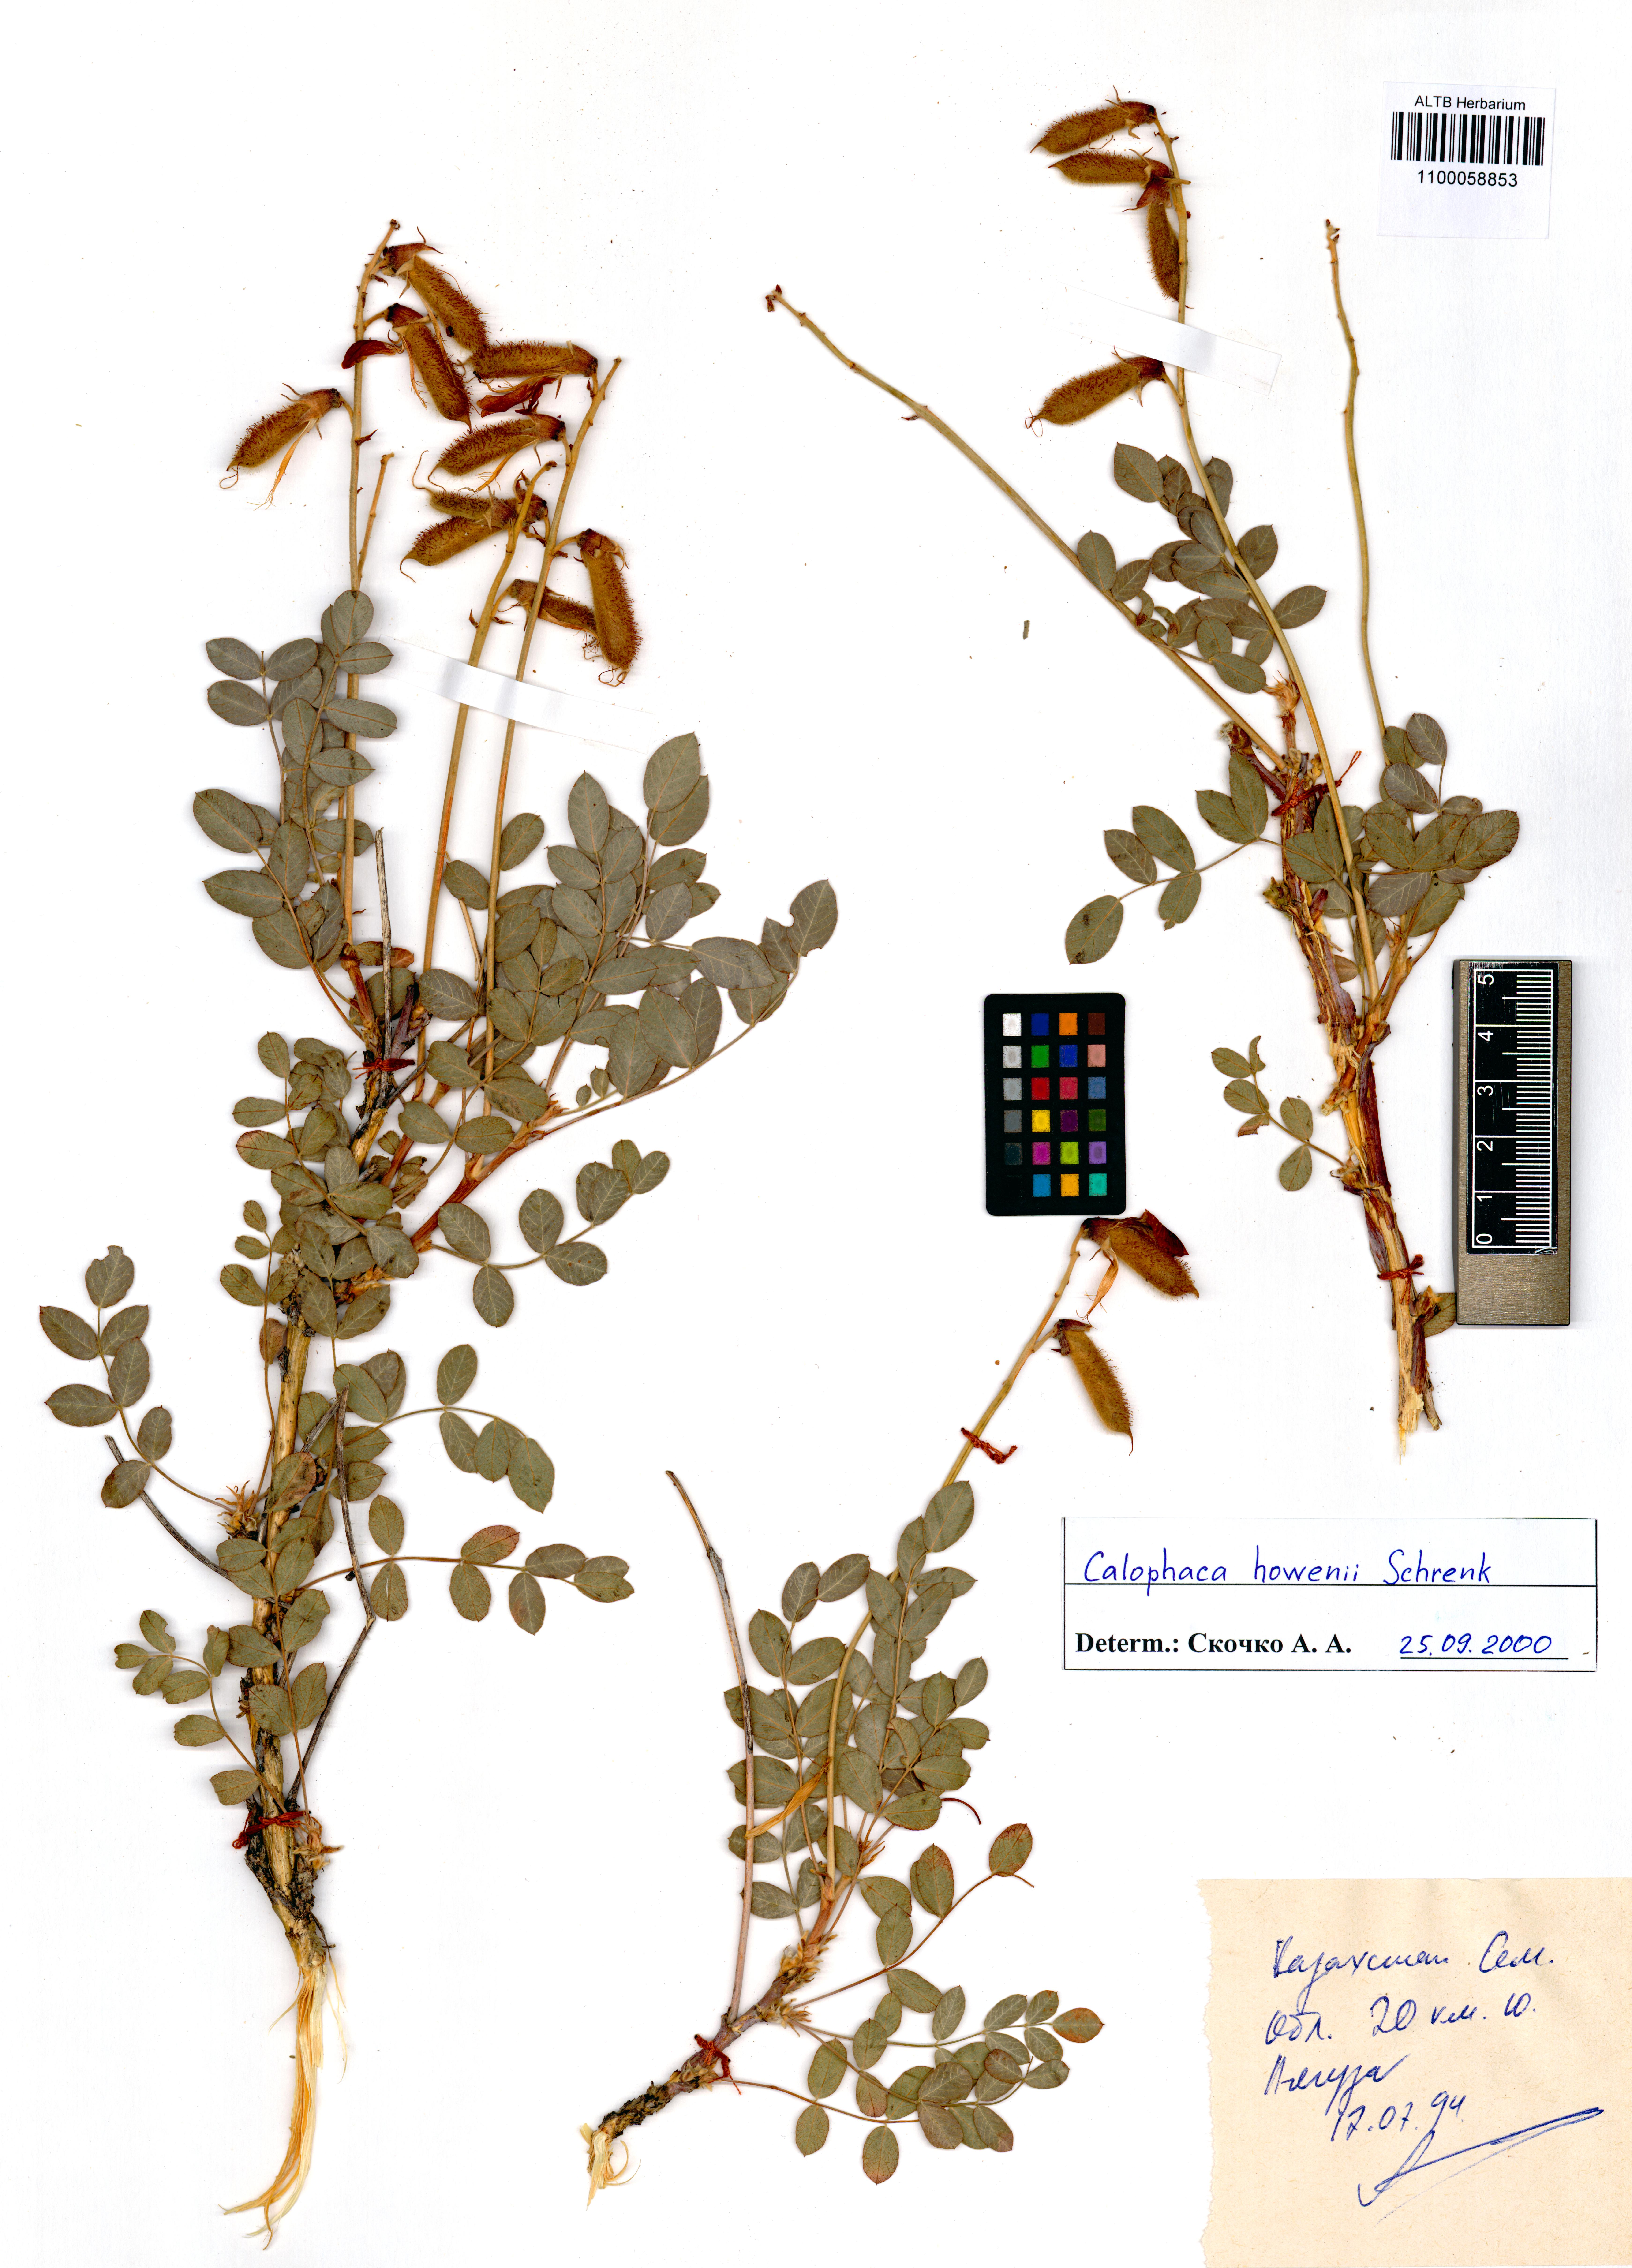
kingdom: Plantae
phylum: Tracheophyta
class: Magnoliopsida
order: Fabales
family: Fabaceae
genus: Calophaca
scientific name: Calophaca soongorica
